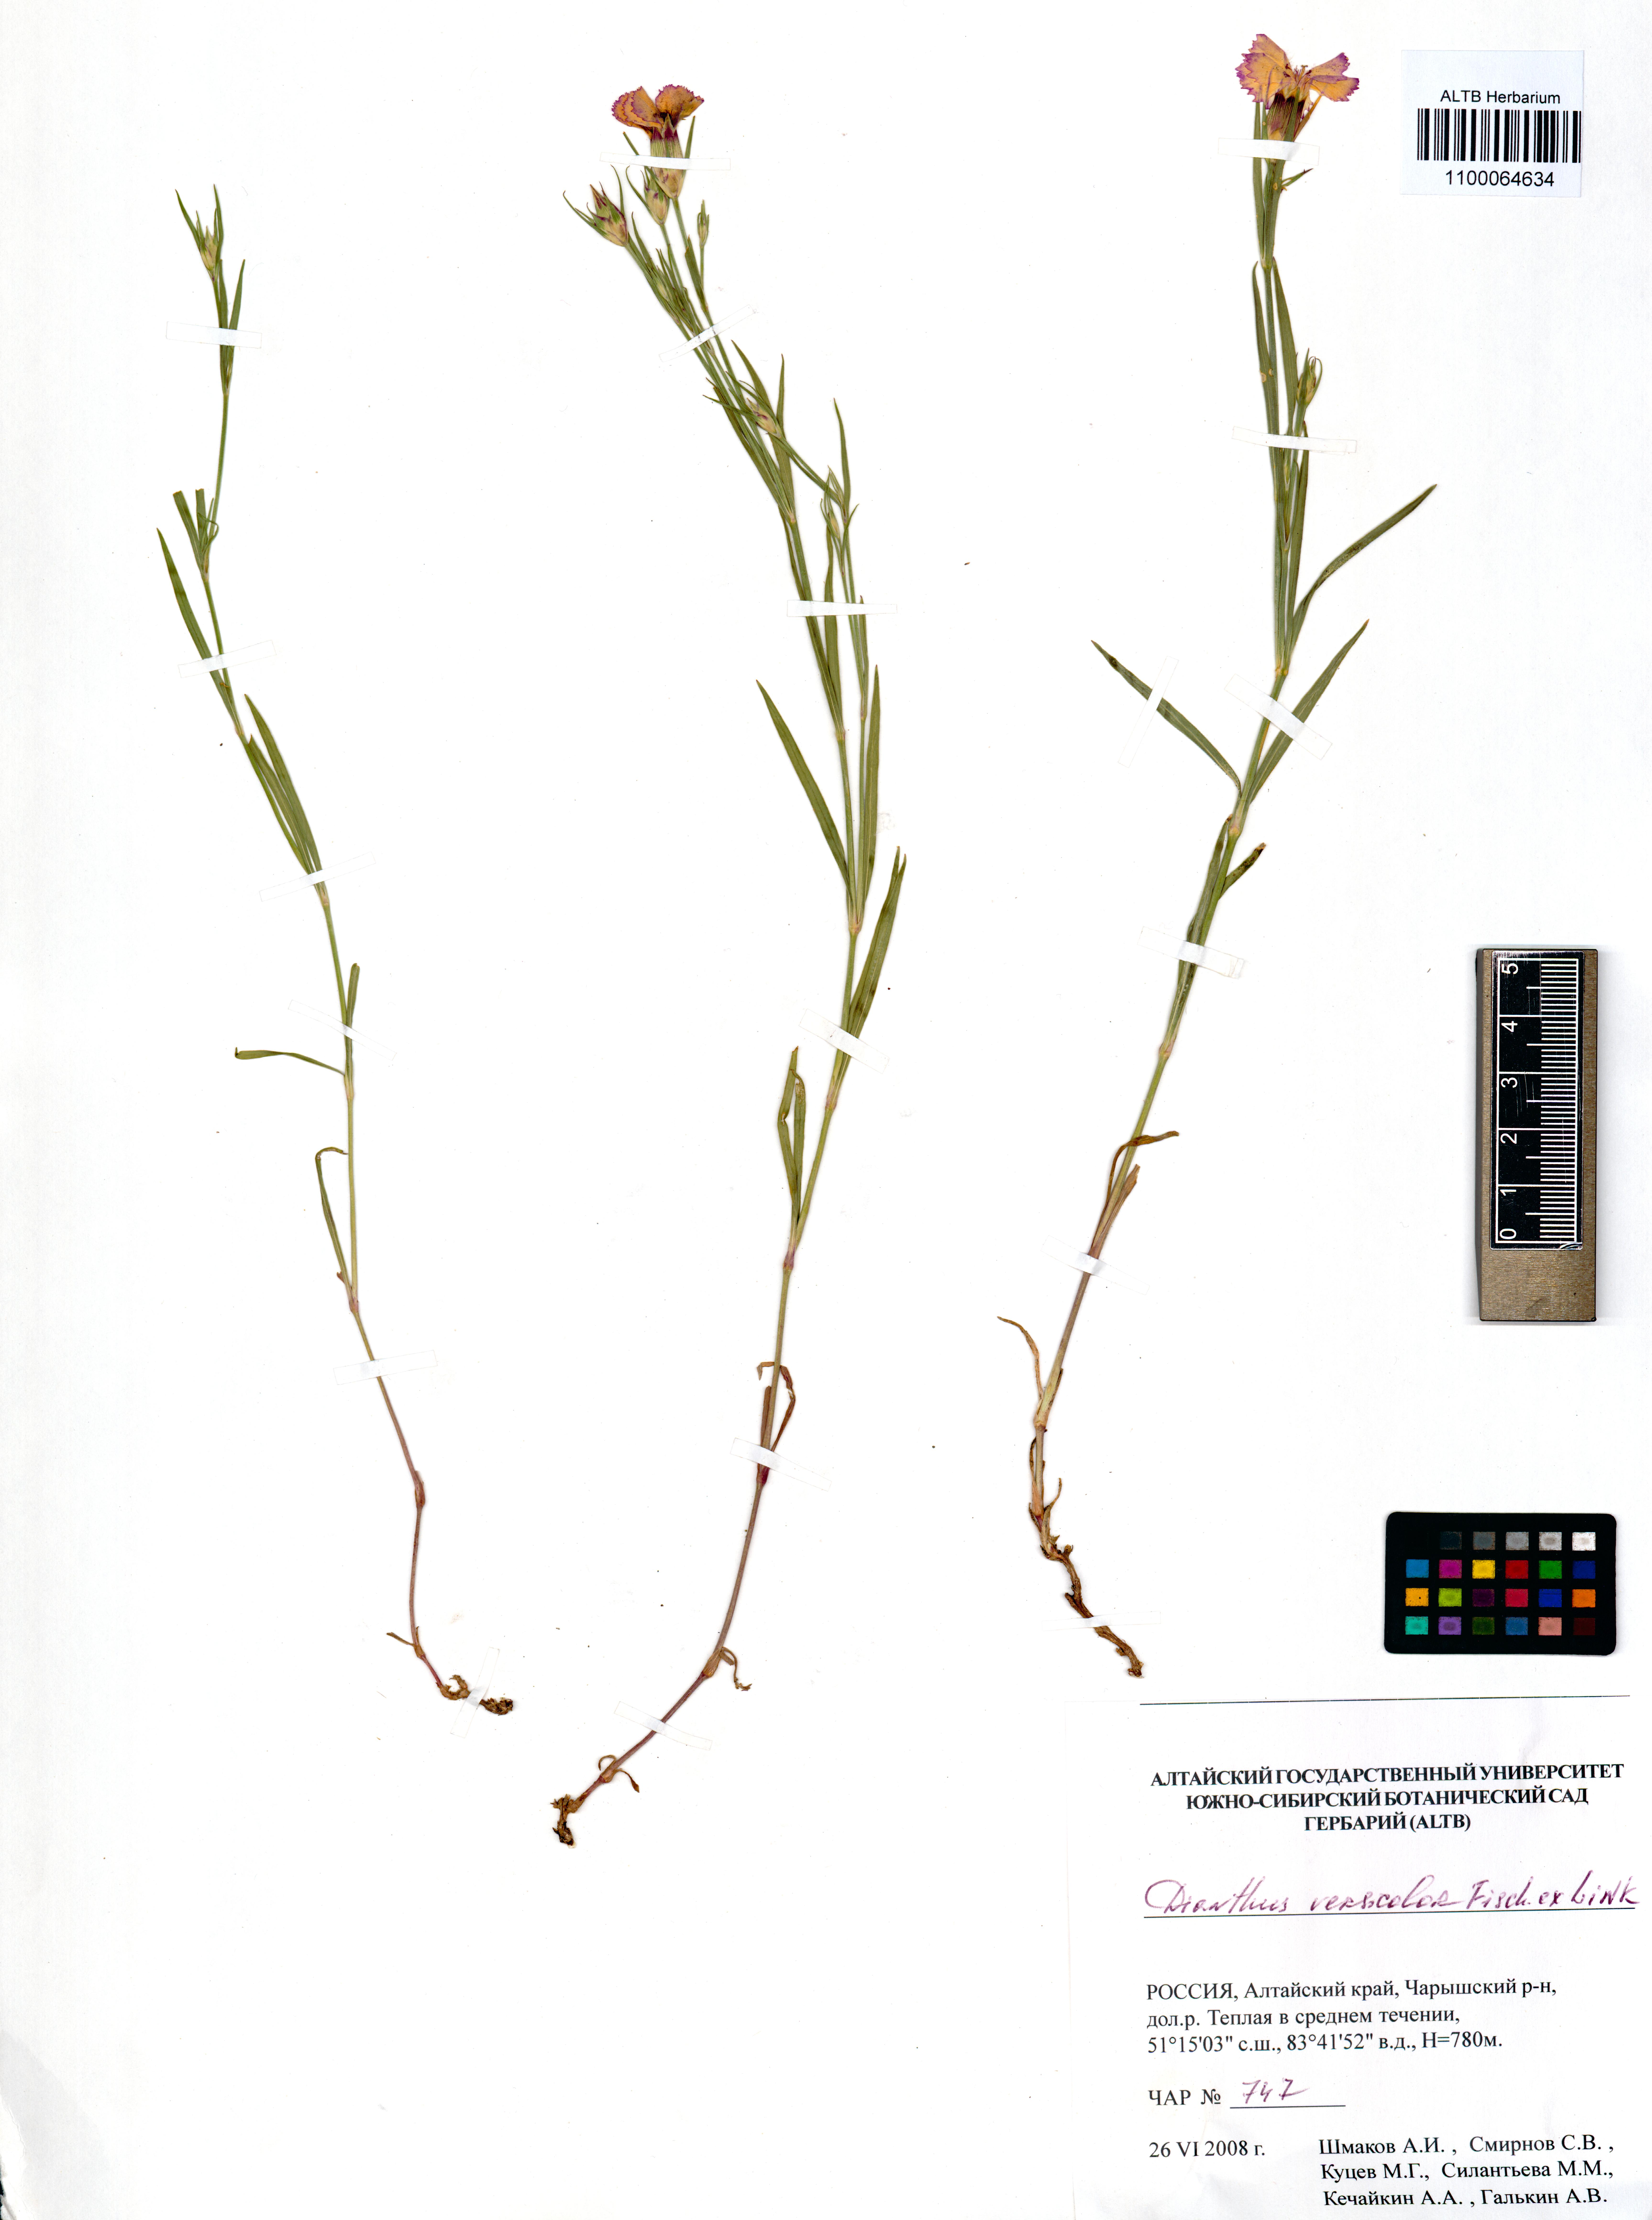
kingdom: Plantae
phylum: Tracheophyta
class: Magnoliopsida
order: Caryophyllales
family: Caryophyllaceae
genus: Dianthus
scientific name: Dianthus chinensis
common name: Rainbow pink
